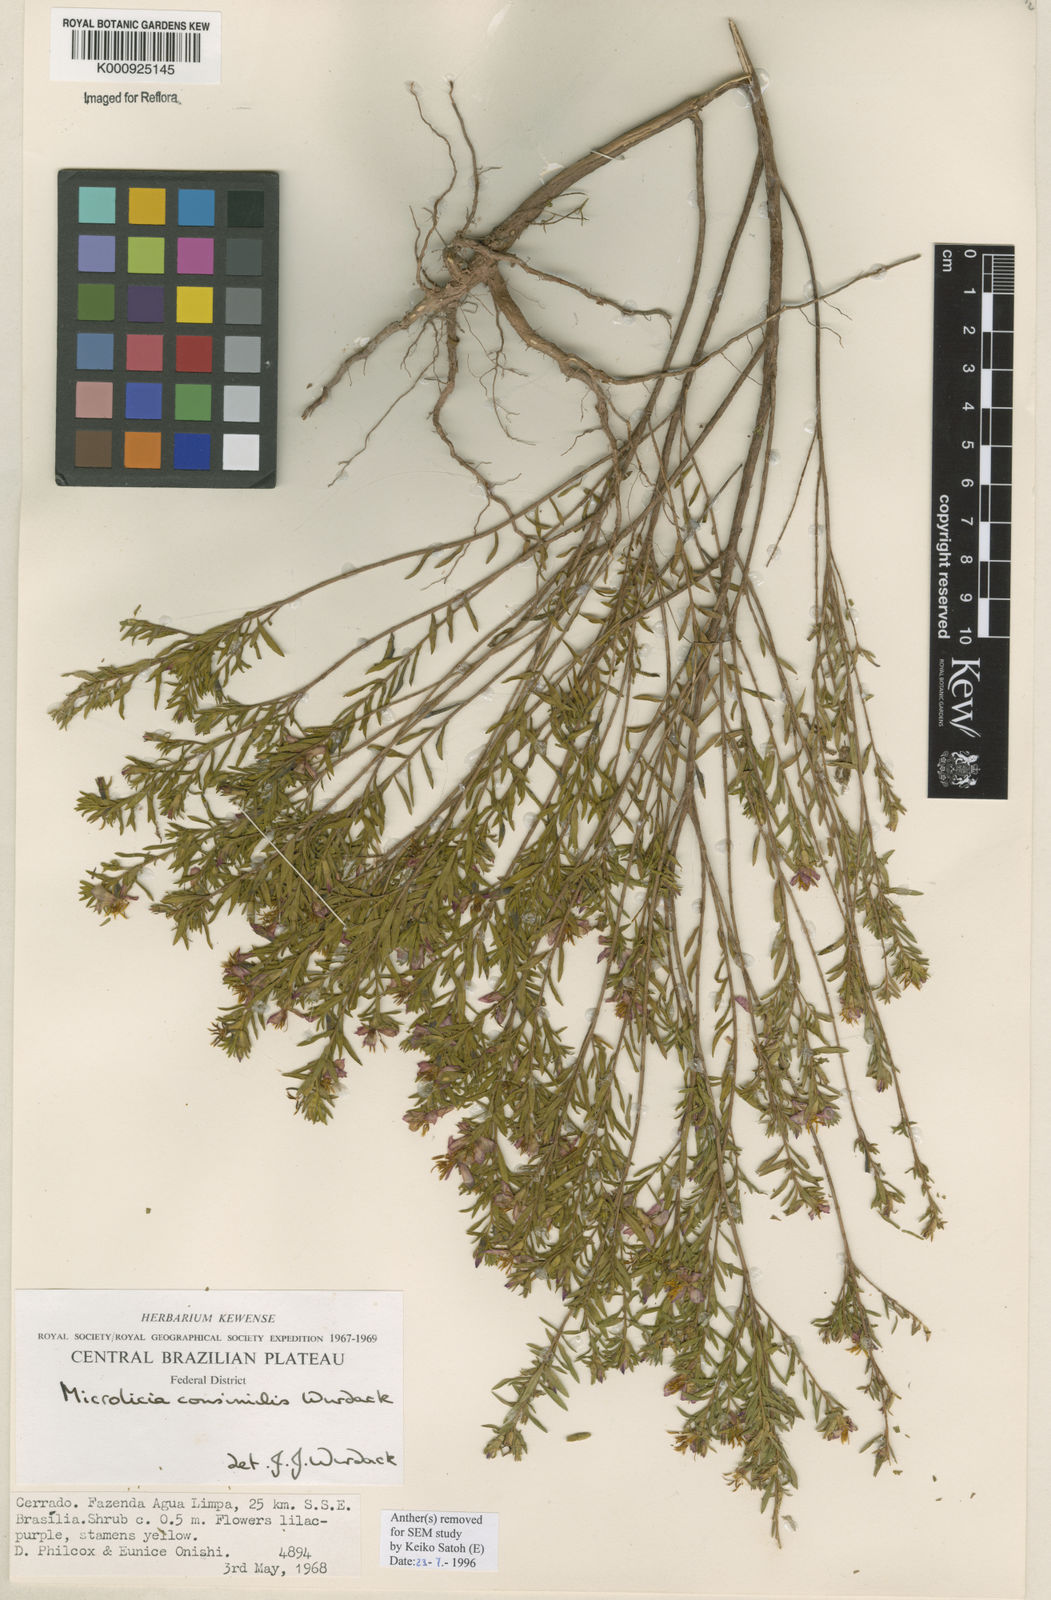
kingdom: Plantae
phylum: Tracheophyta
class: Magnoliopsida
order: Myrtales
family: Melastomataceae
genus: Microlicia
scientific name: Microlicia consimilis
